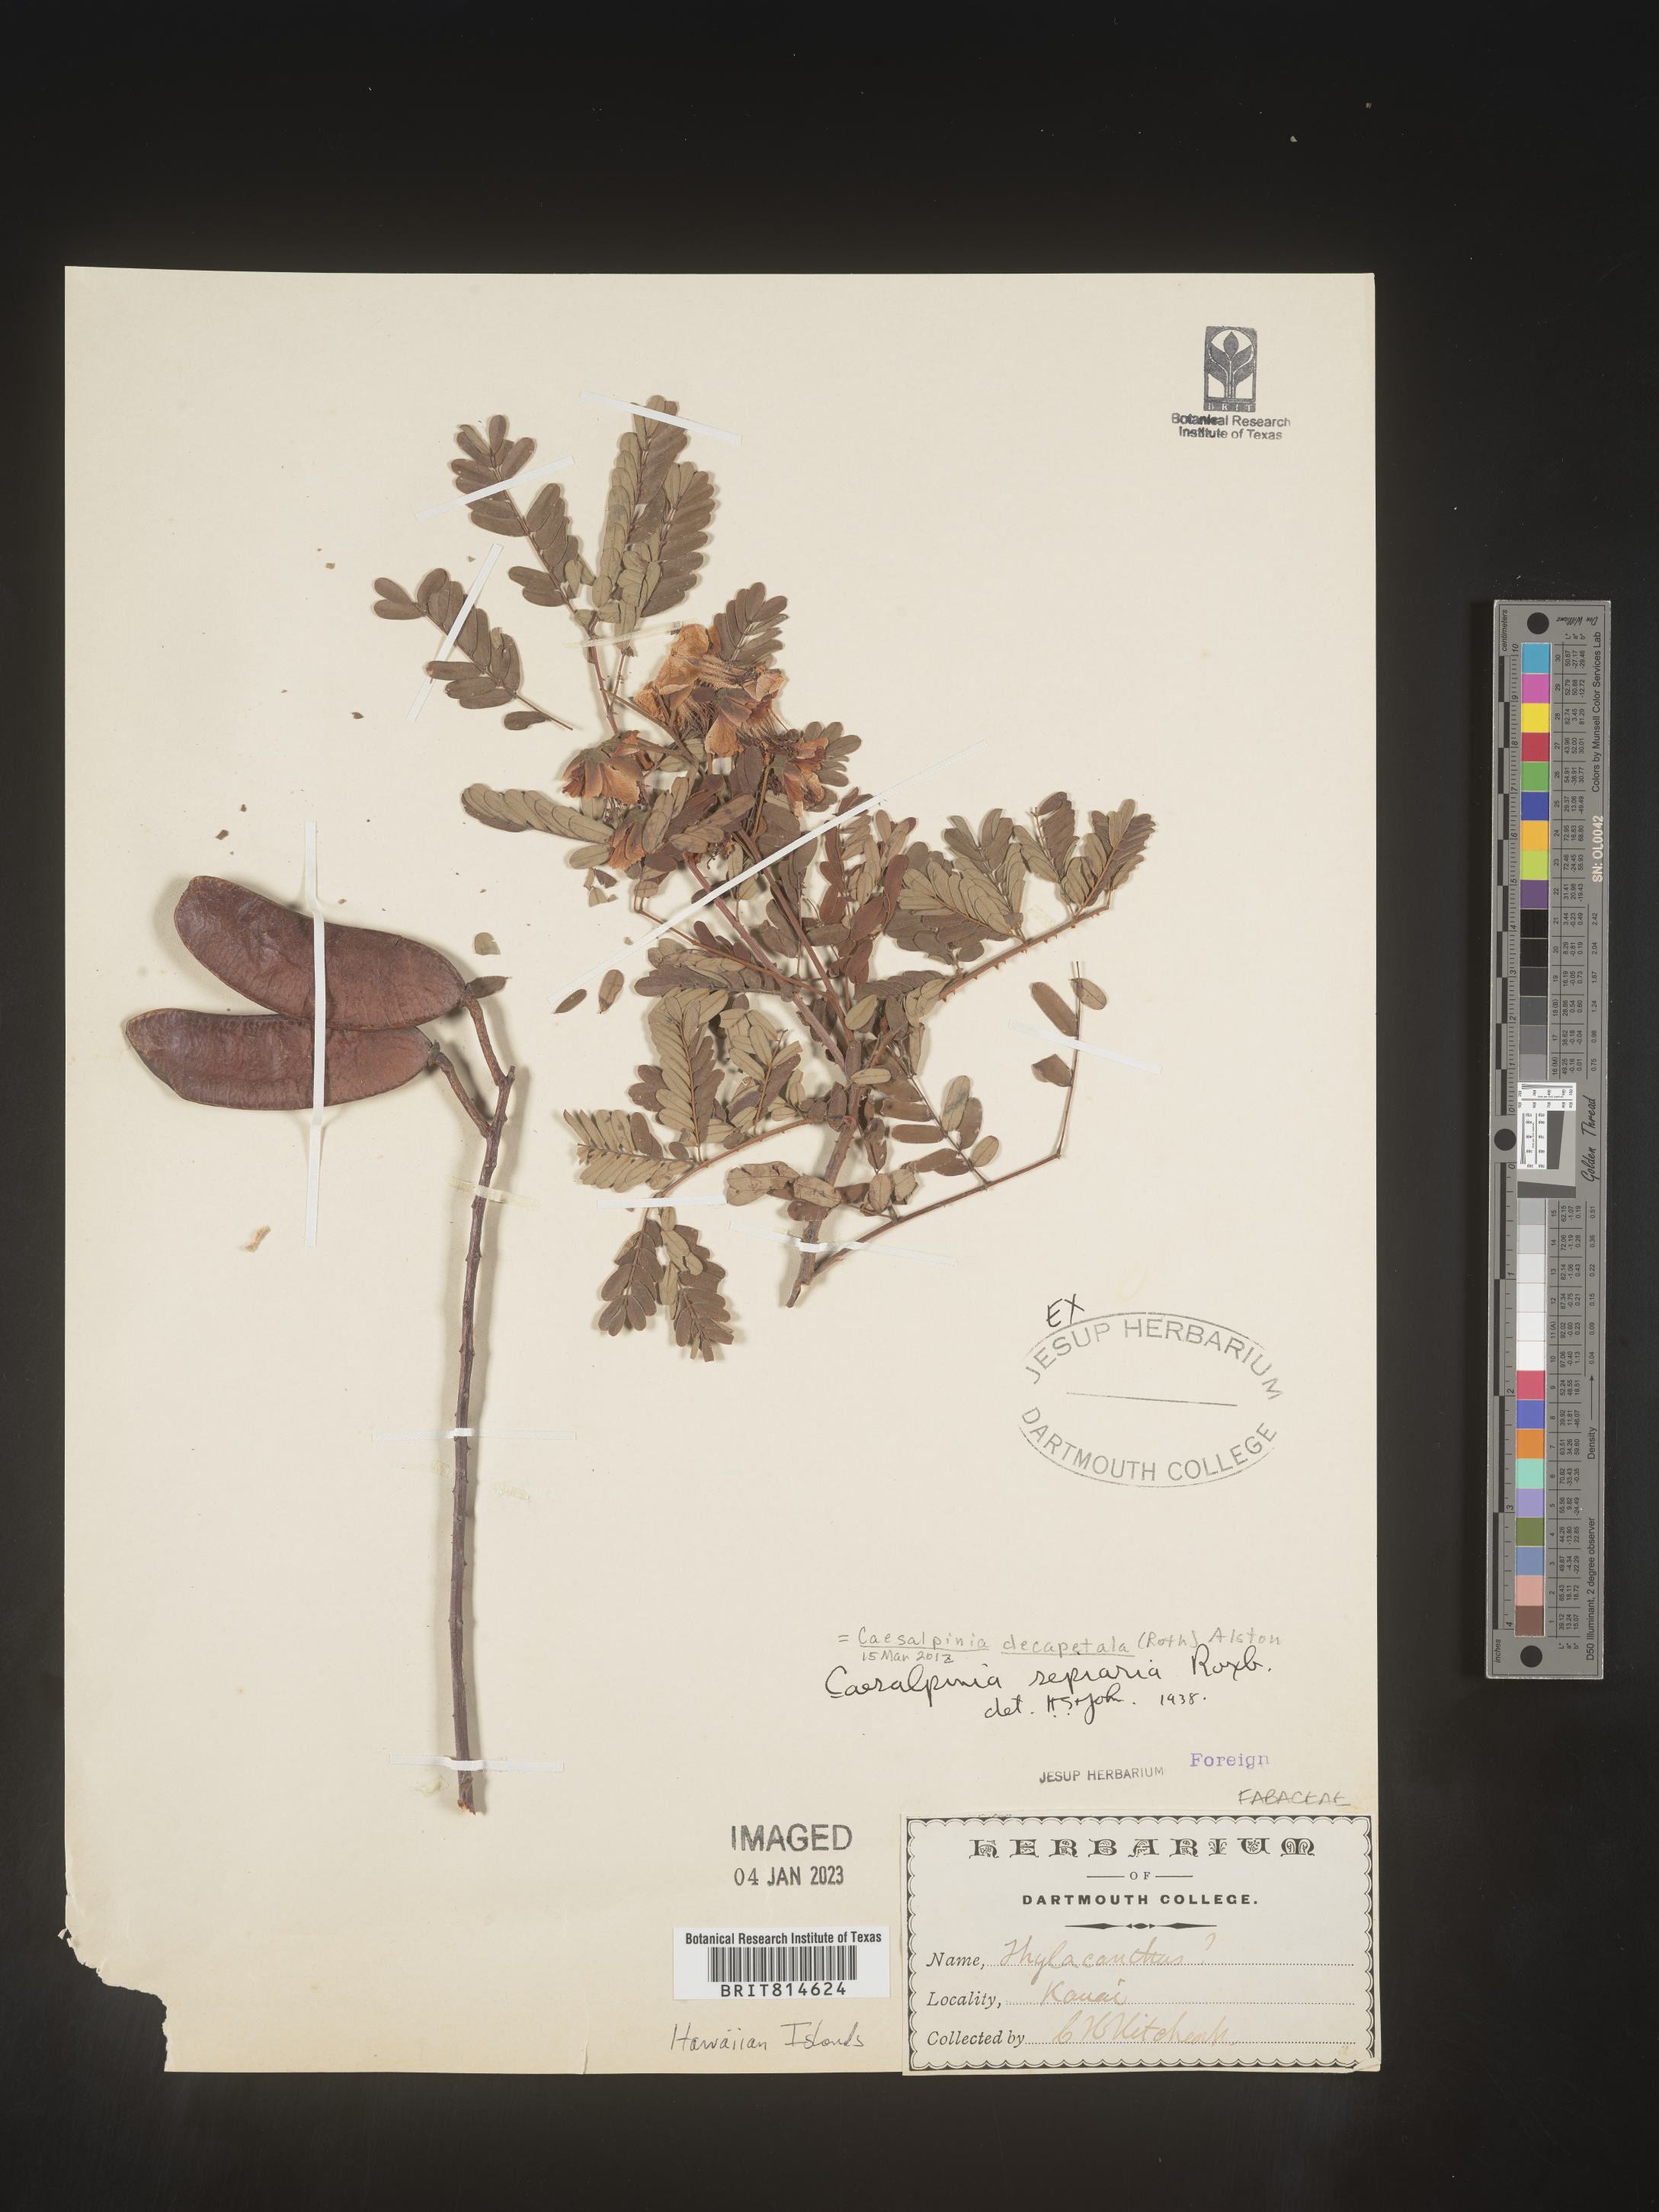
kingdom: Plantae
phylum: Tracheophyta
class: Magnoliopsida
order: Fabales
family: Fabaceae
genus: Biancaea
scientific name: Biancaea decapetala
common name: Cat's claw
